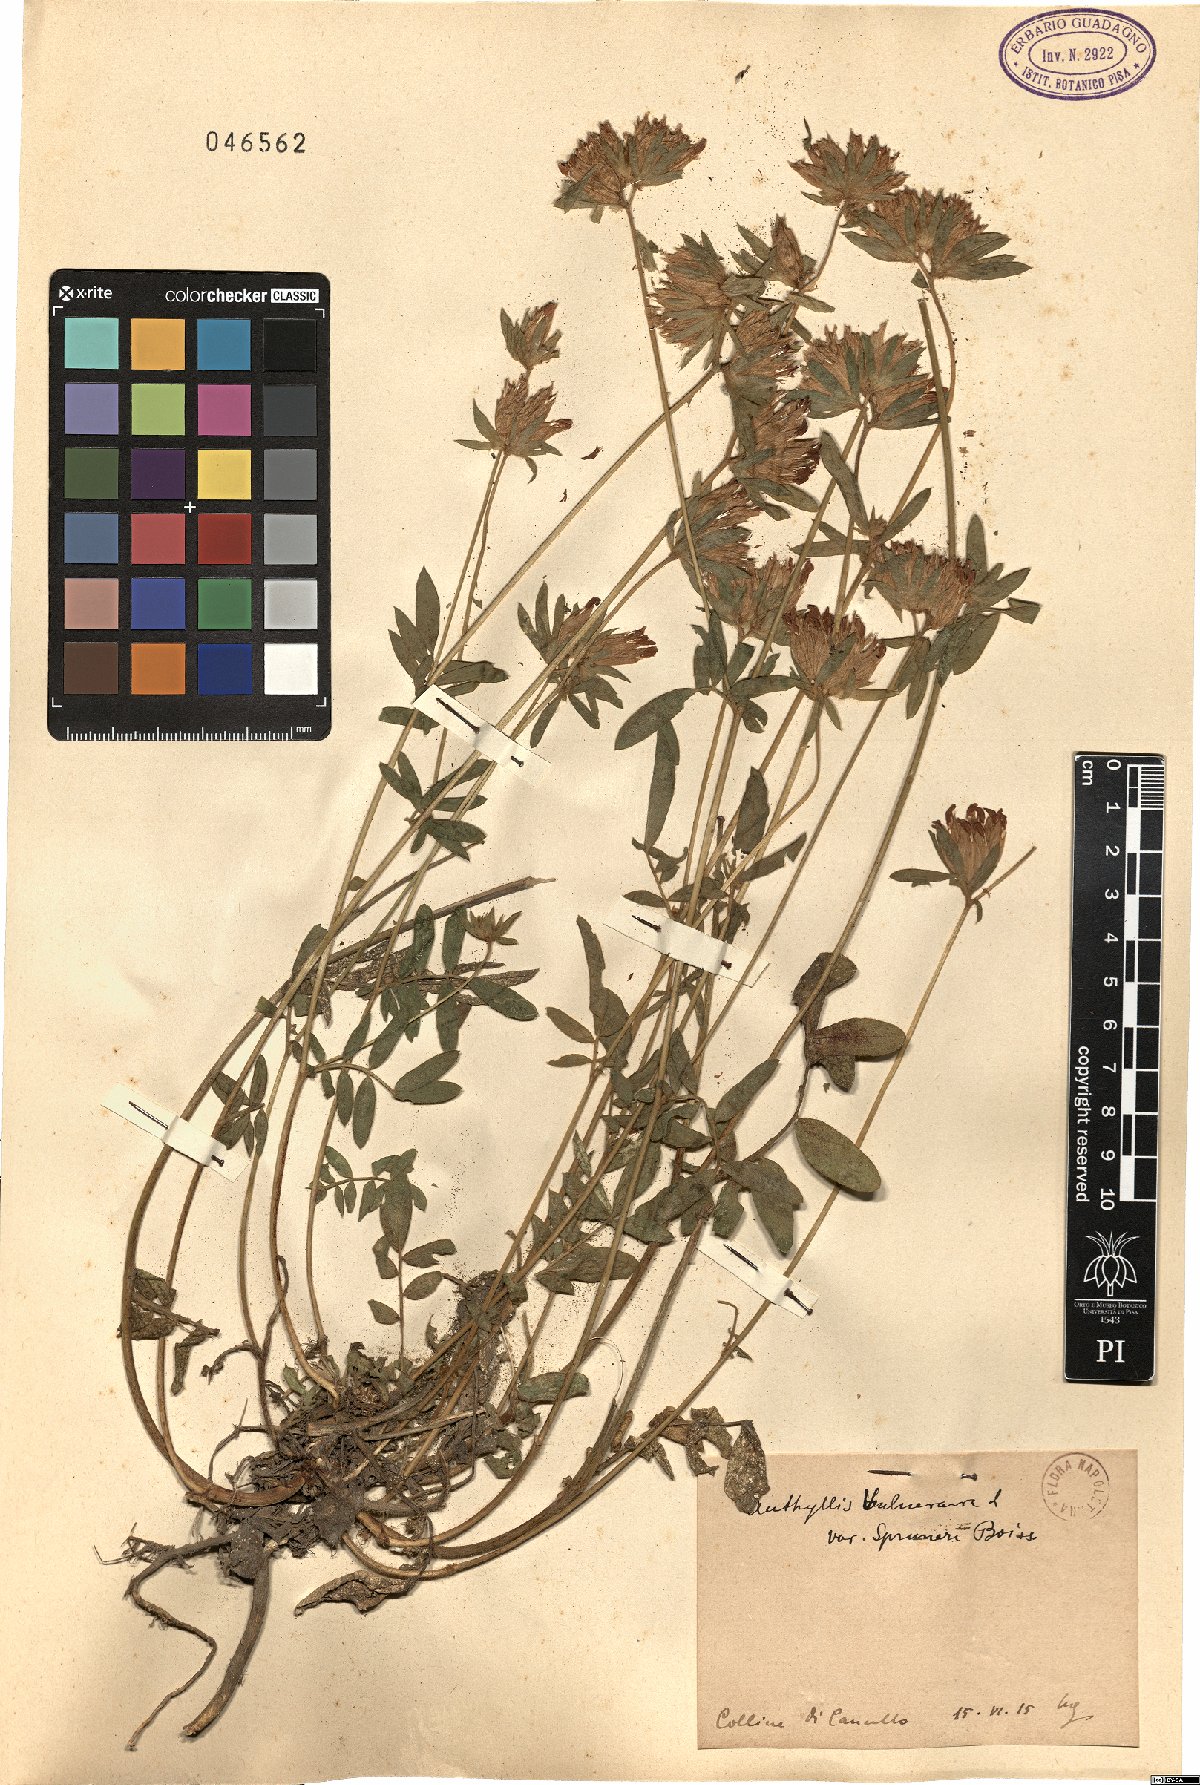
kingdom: Plantae
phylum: Tracheophyta
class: Magnoliopsida
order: Fabales
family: Fabaceae
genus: Anthyllis
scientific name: Anthyllis vulneraria
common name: Kidney vetch
